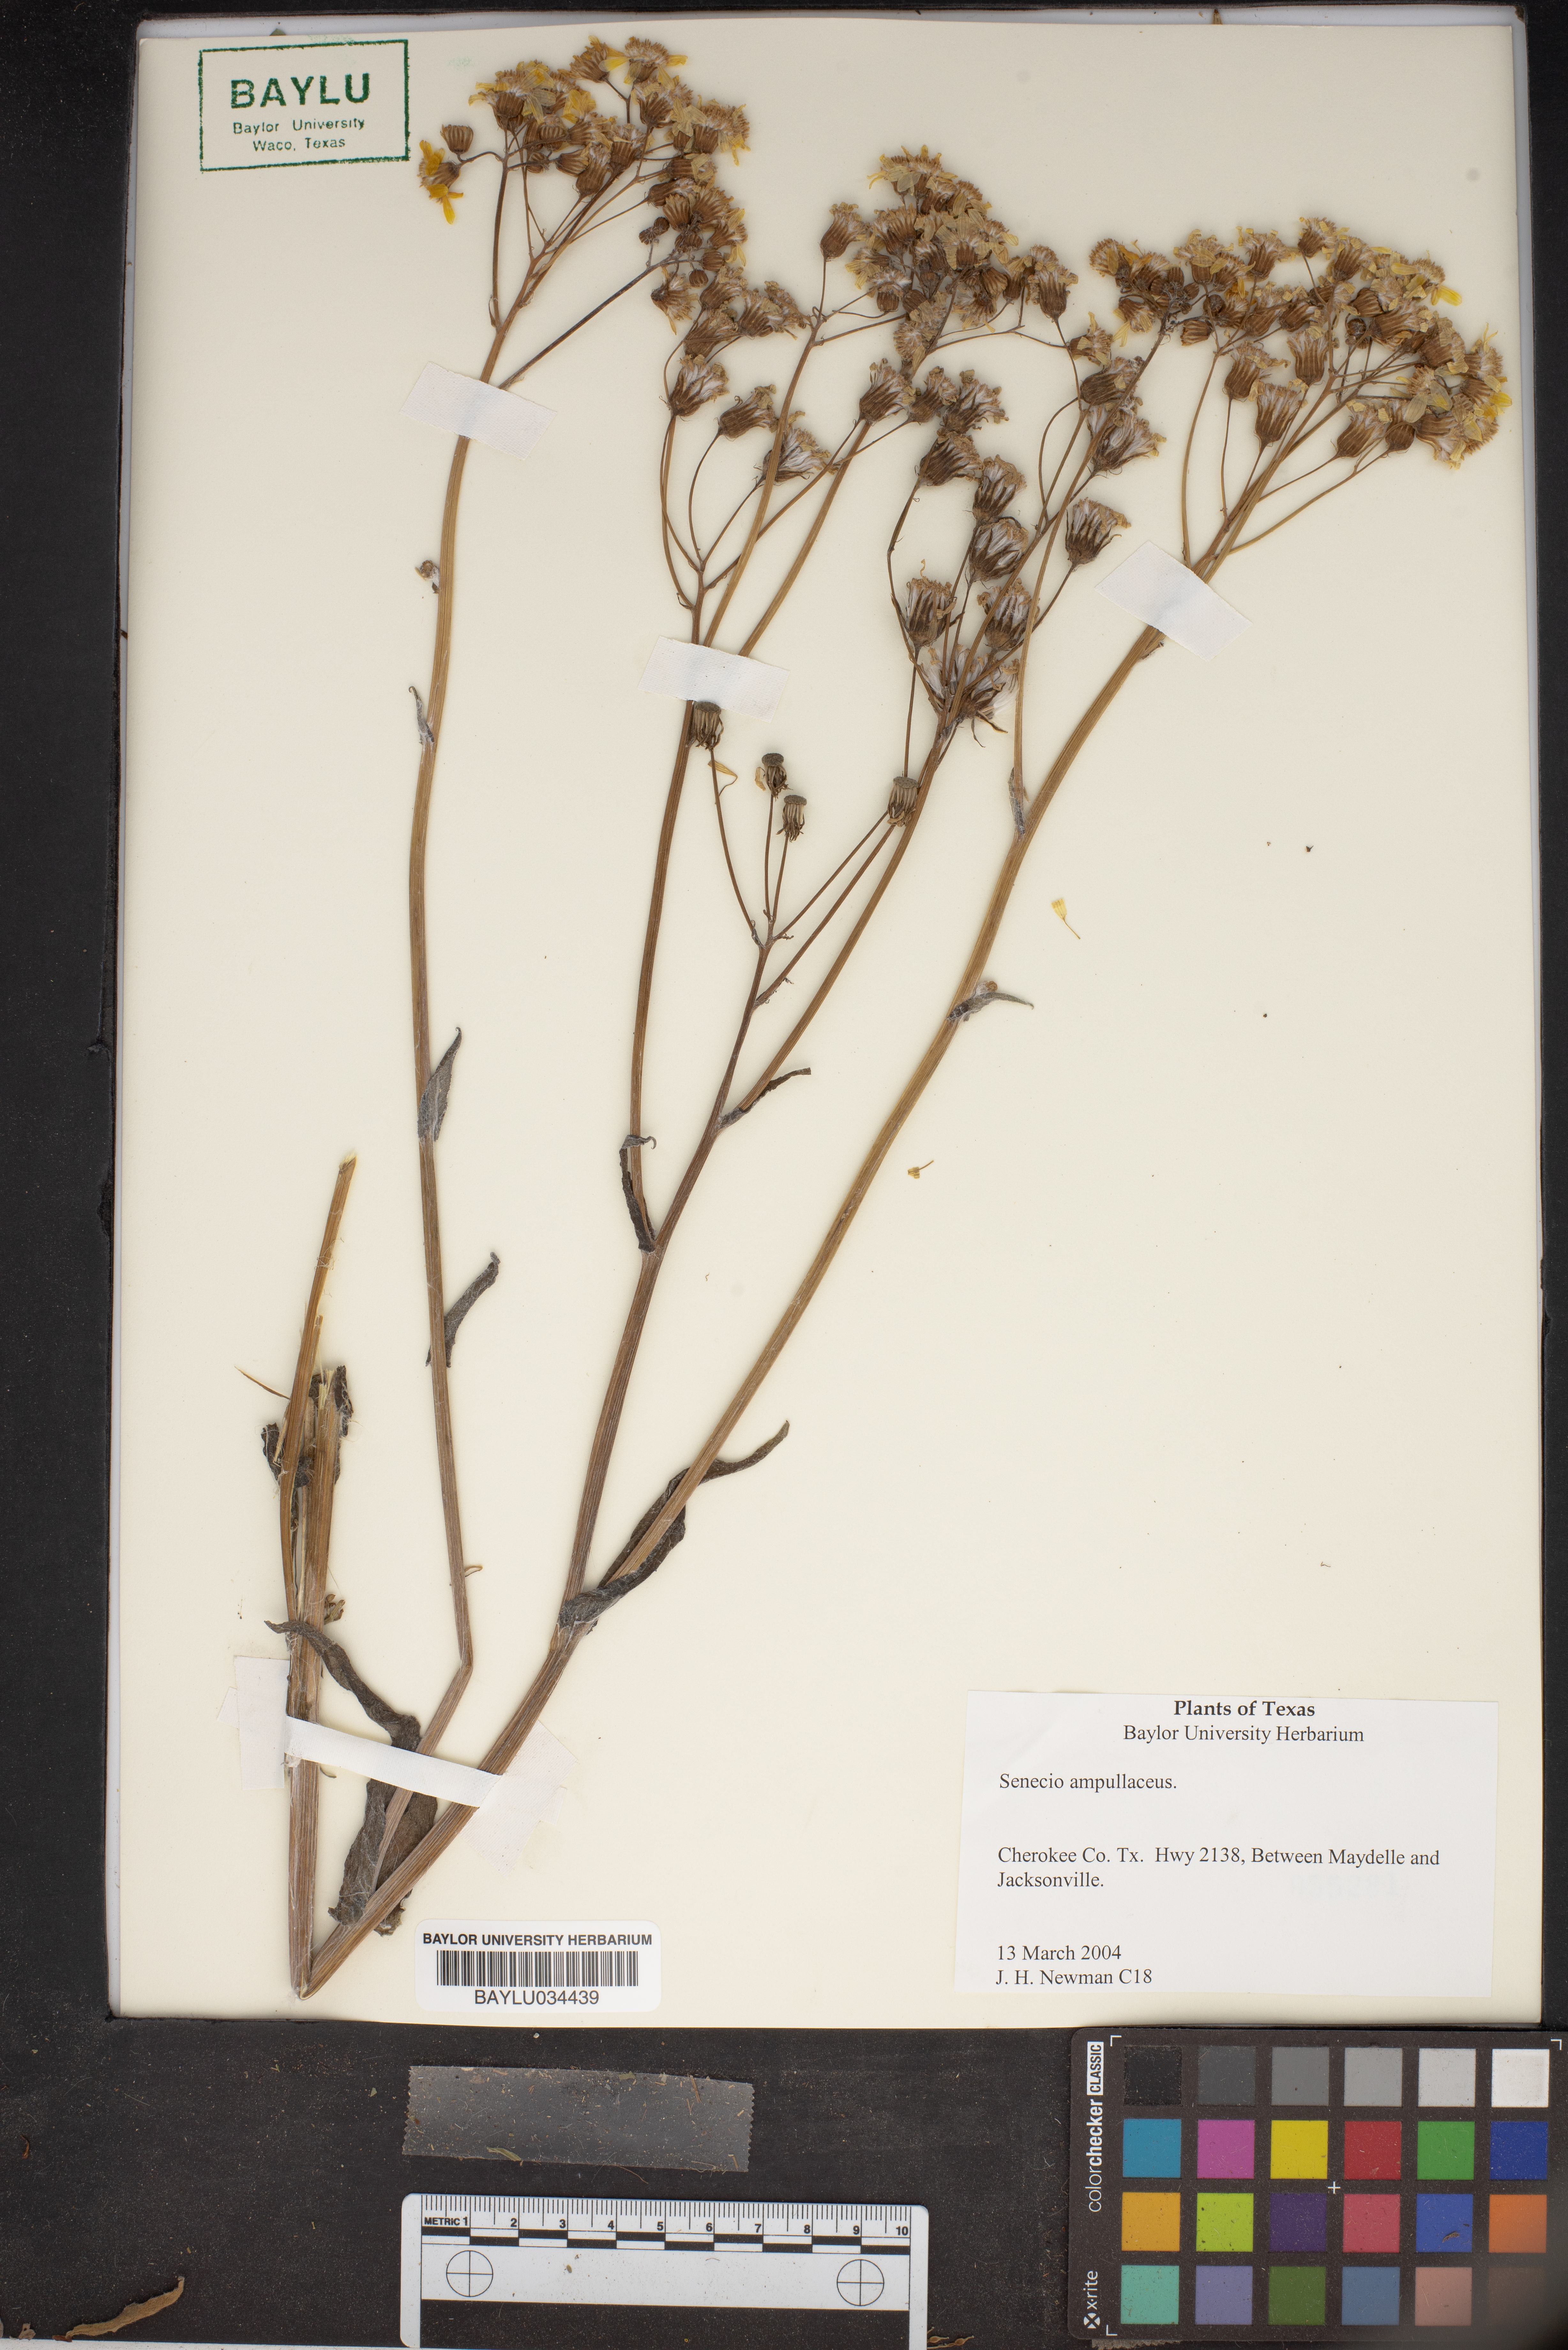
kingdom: Plantae
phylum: Tracheophyta
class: Magnoliopsida
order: Asterales
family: Asteraceae
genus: Senecio
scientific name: Senecio ampullaceus
